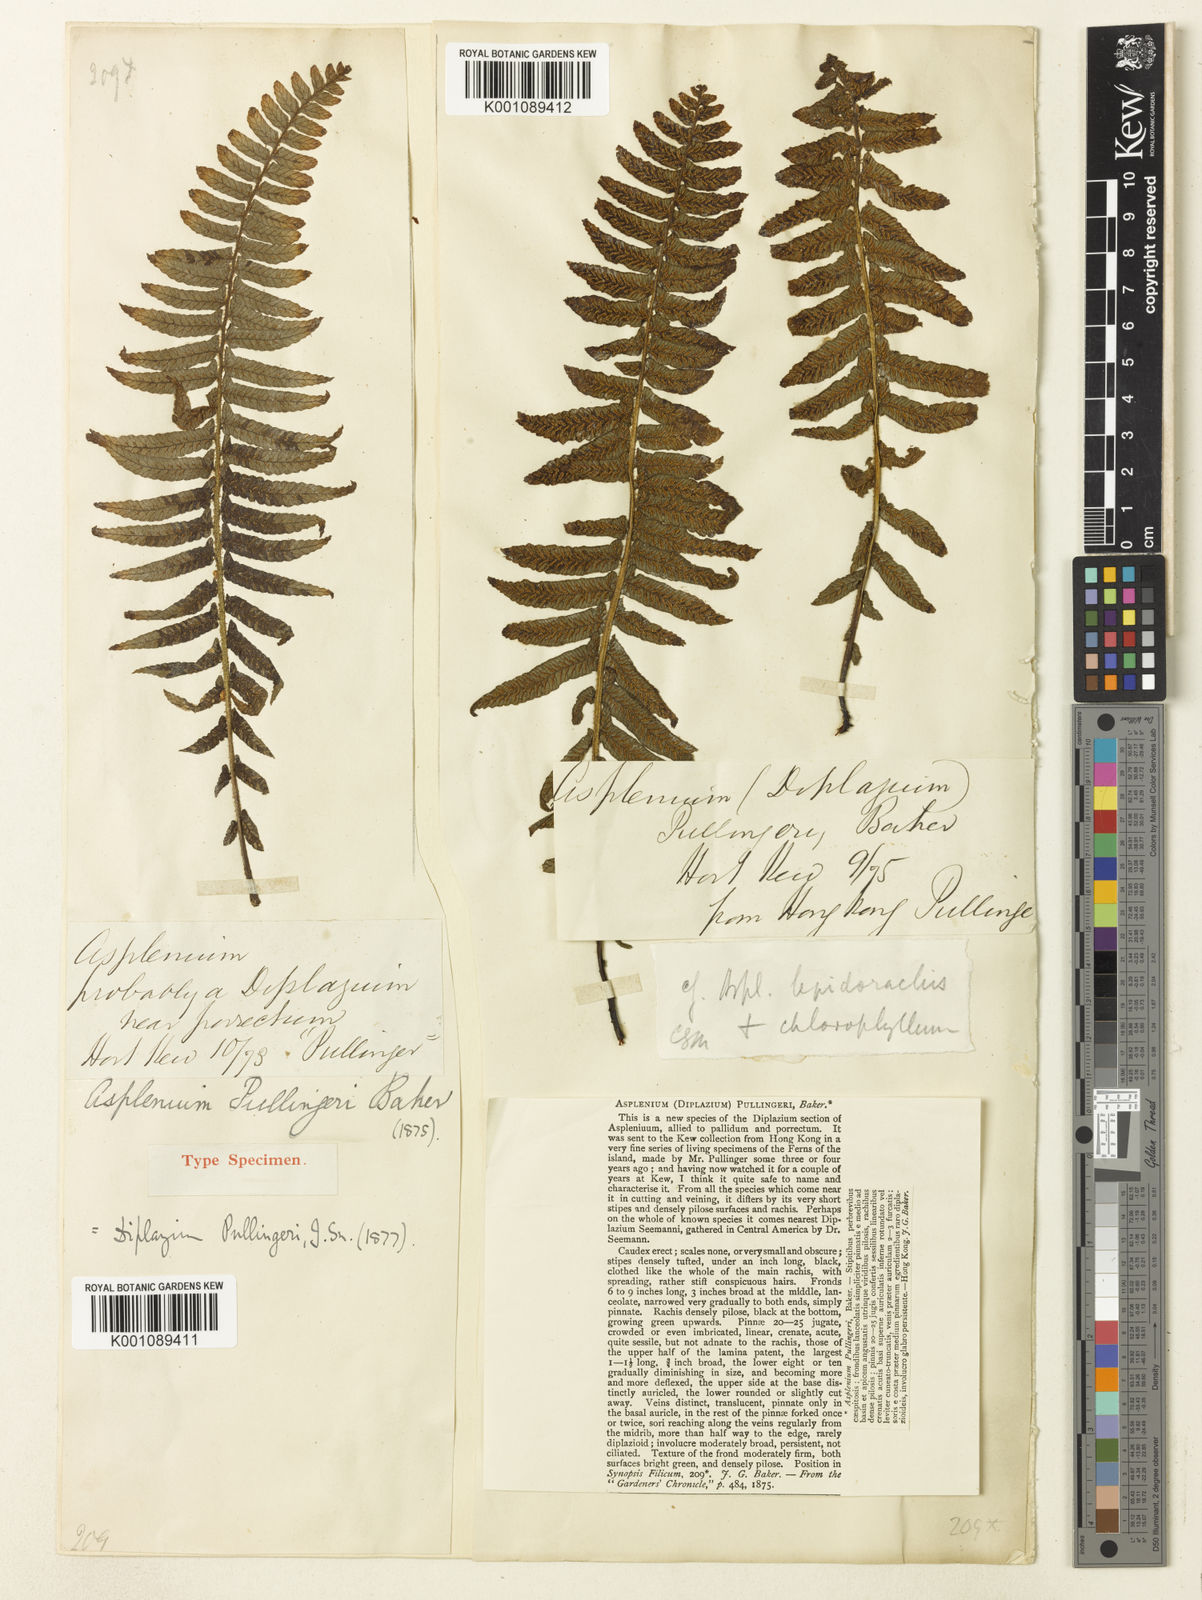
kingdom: Plantae
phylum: Tracheophyta
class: Polypodiopsida
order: Polypodiales
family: Athyriaceae
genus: Diplazium
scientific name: Diplazium pullingeri
